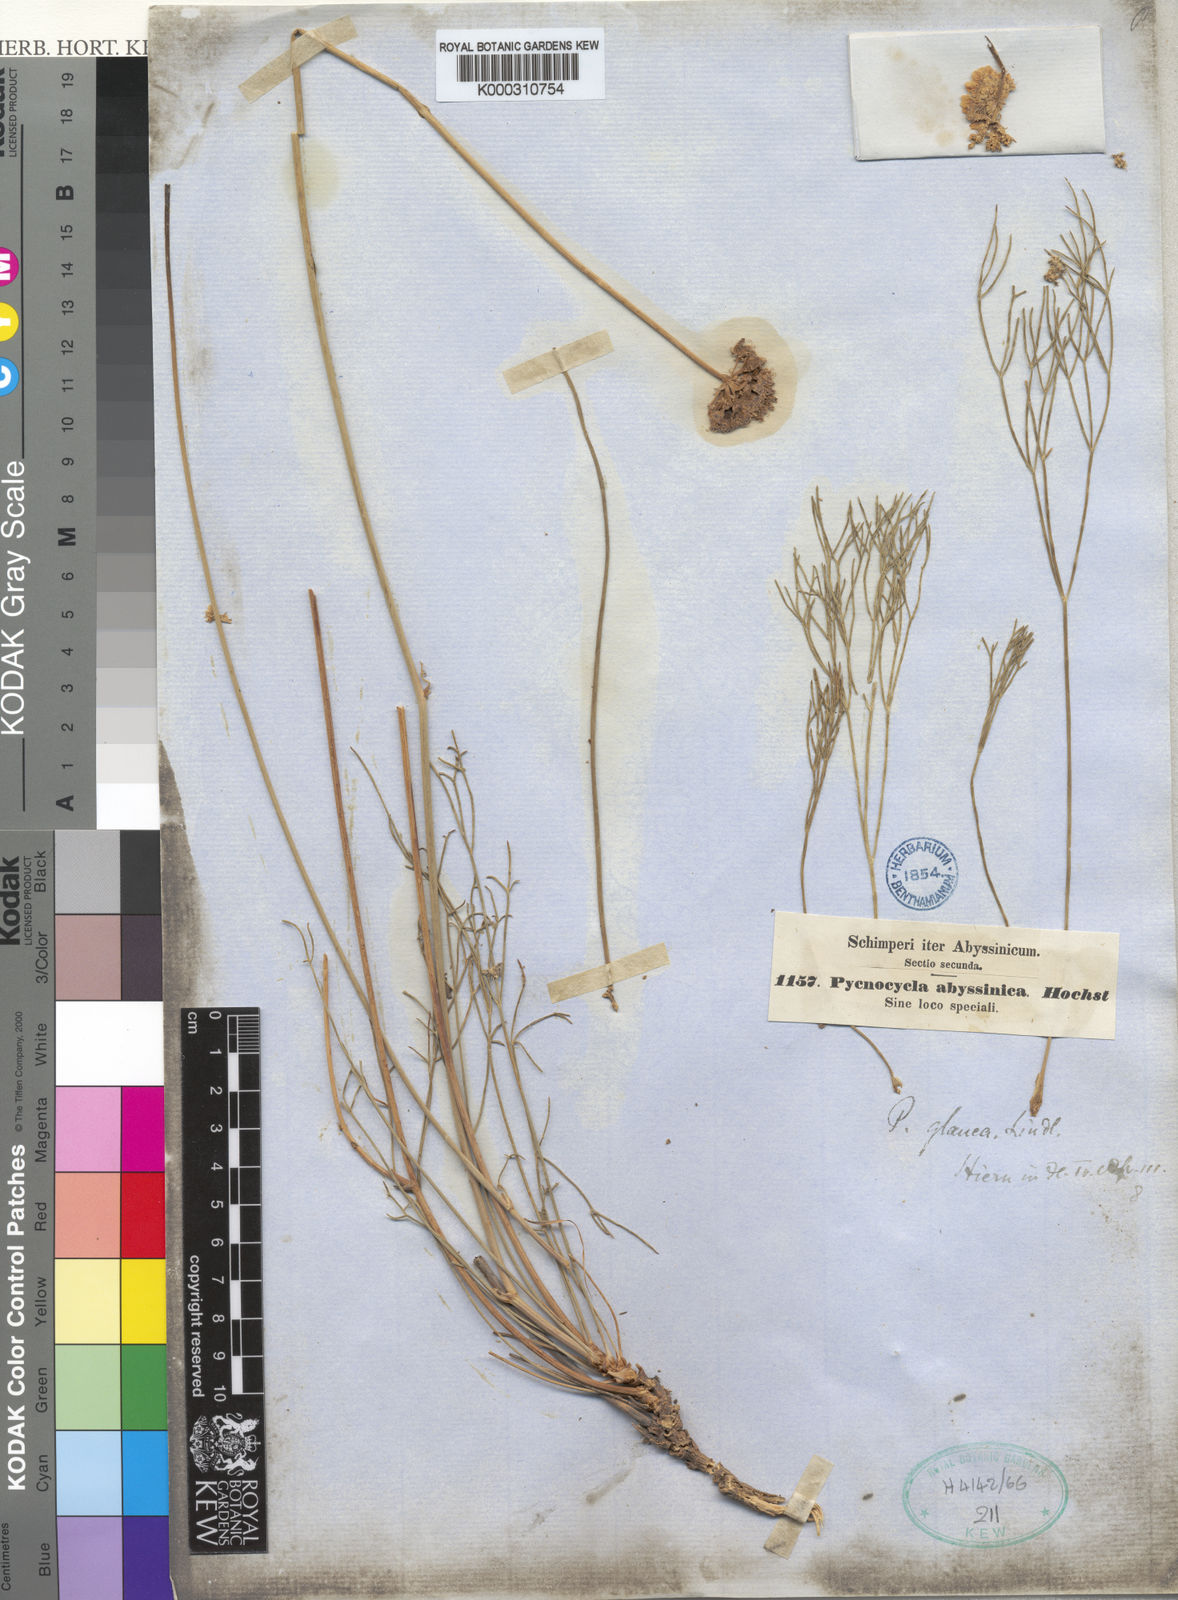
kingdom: Plantae
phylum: Tracheophyta
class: Magnoliopsida
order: Apiales
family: Apiaceae
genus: Pycnocycla
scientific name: Pycnocycla glauca
